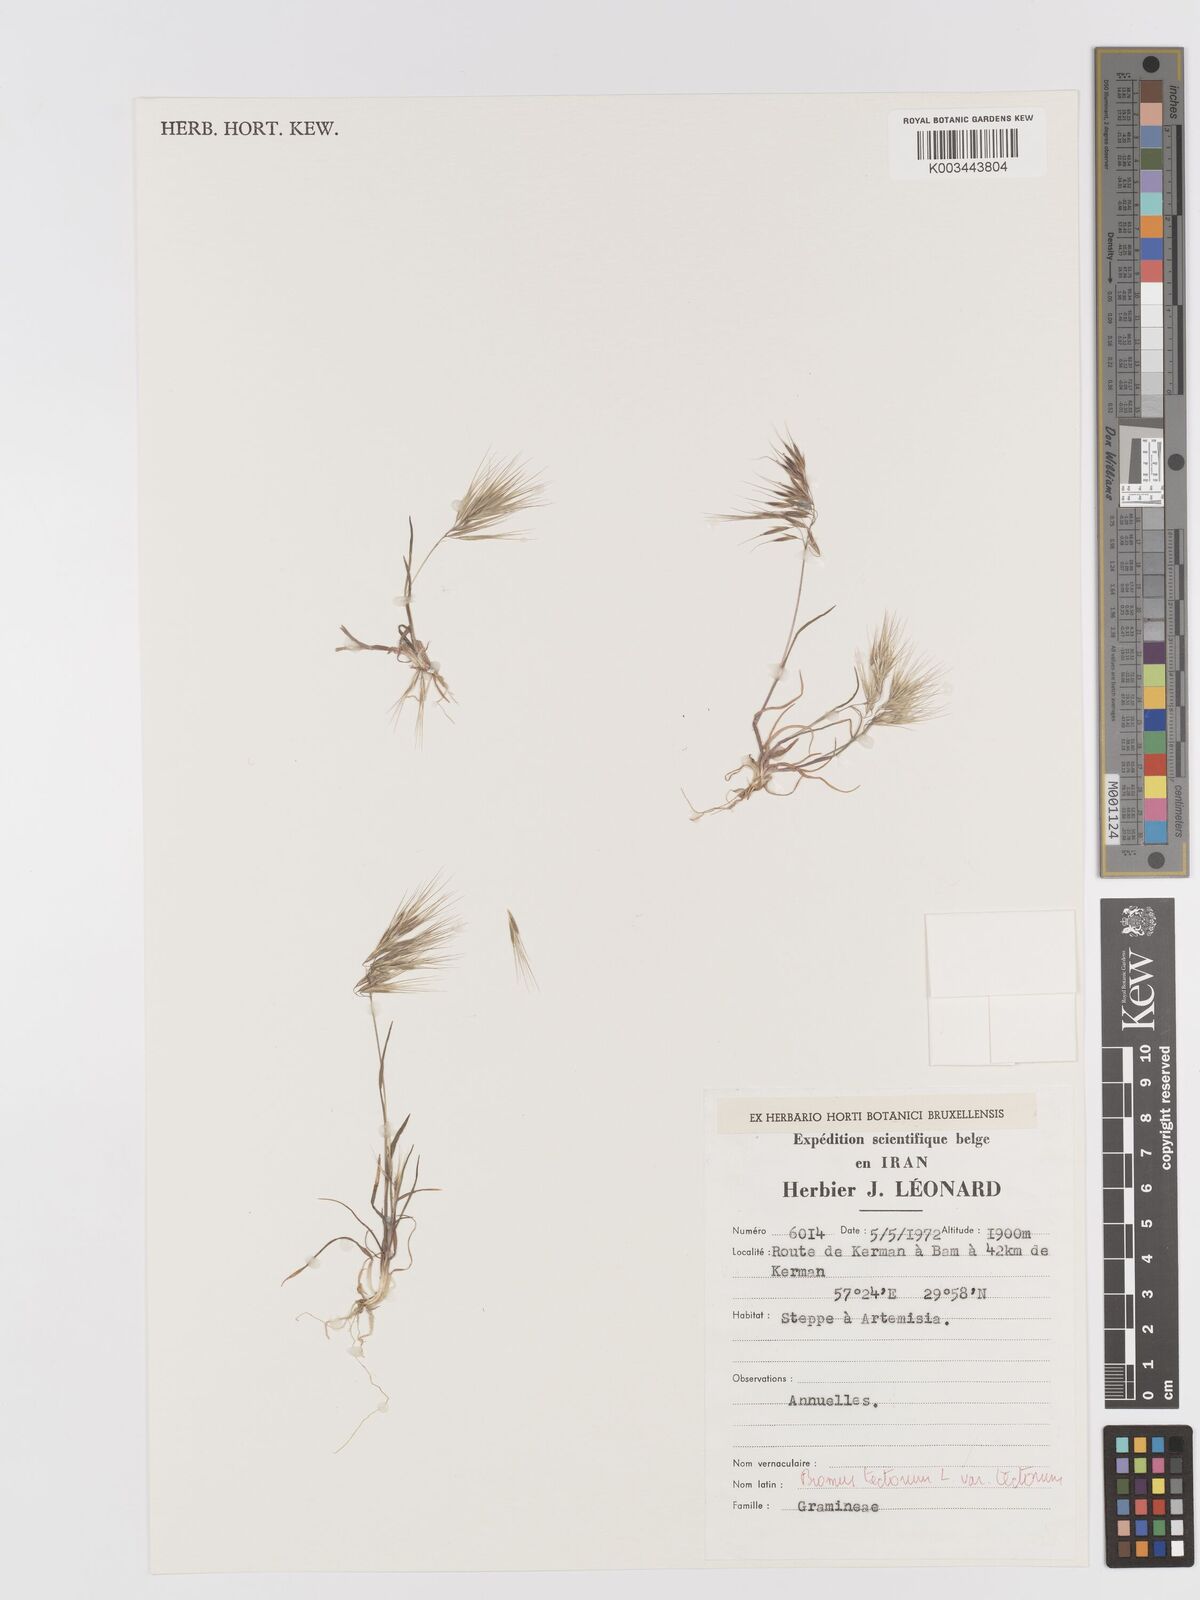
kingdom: Plantae
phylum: Tracheophyta
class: Liliopsida
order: Poales
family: Poaceae
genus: Bromus
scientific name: Bromus tectorum
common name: Cheatgrass
